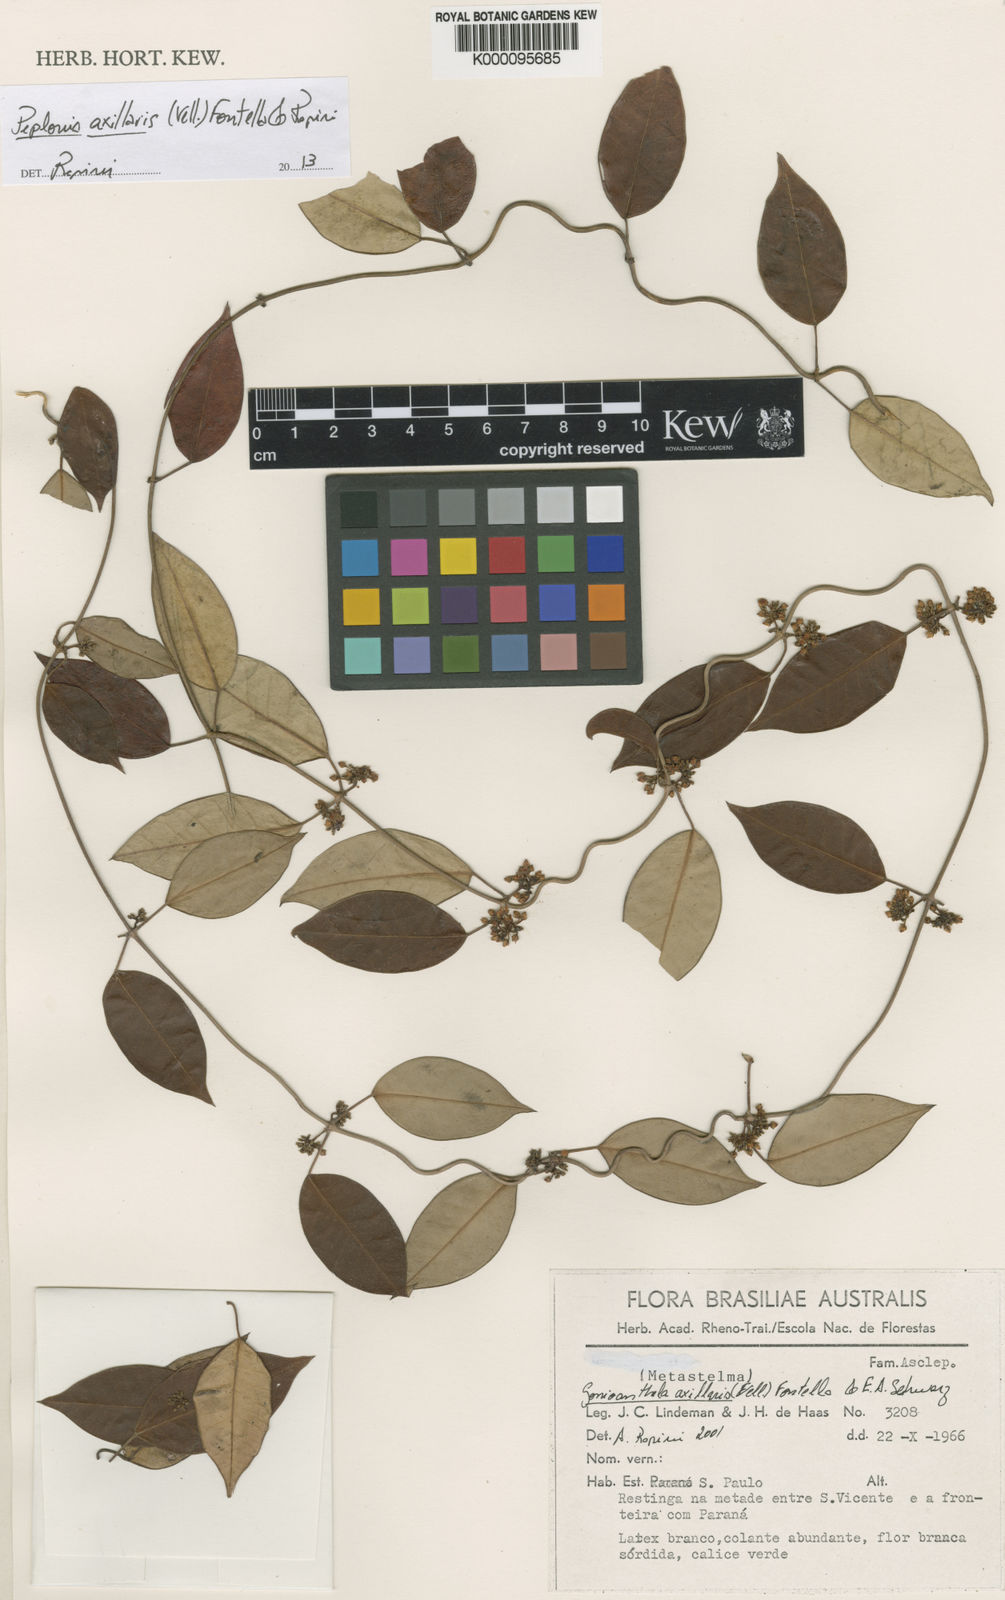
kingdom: Plantae
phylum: Tracheophyta
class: Magnoliopsida
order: Gentianales
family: Apocynaceae
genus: Peplonia
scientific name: Peplonia axillaris
